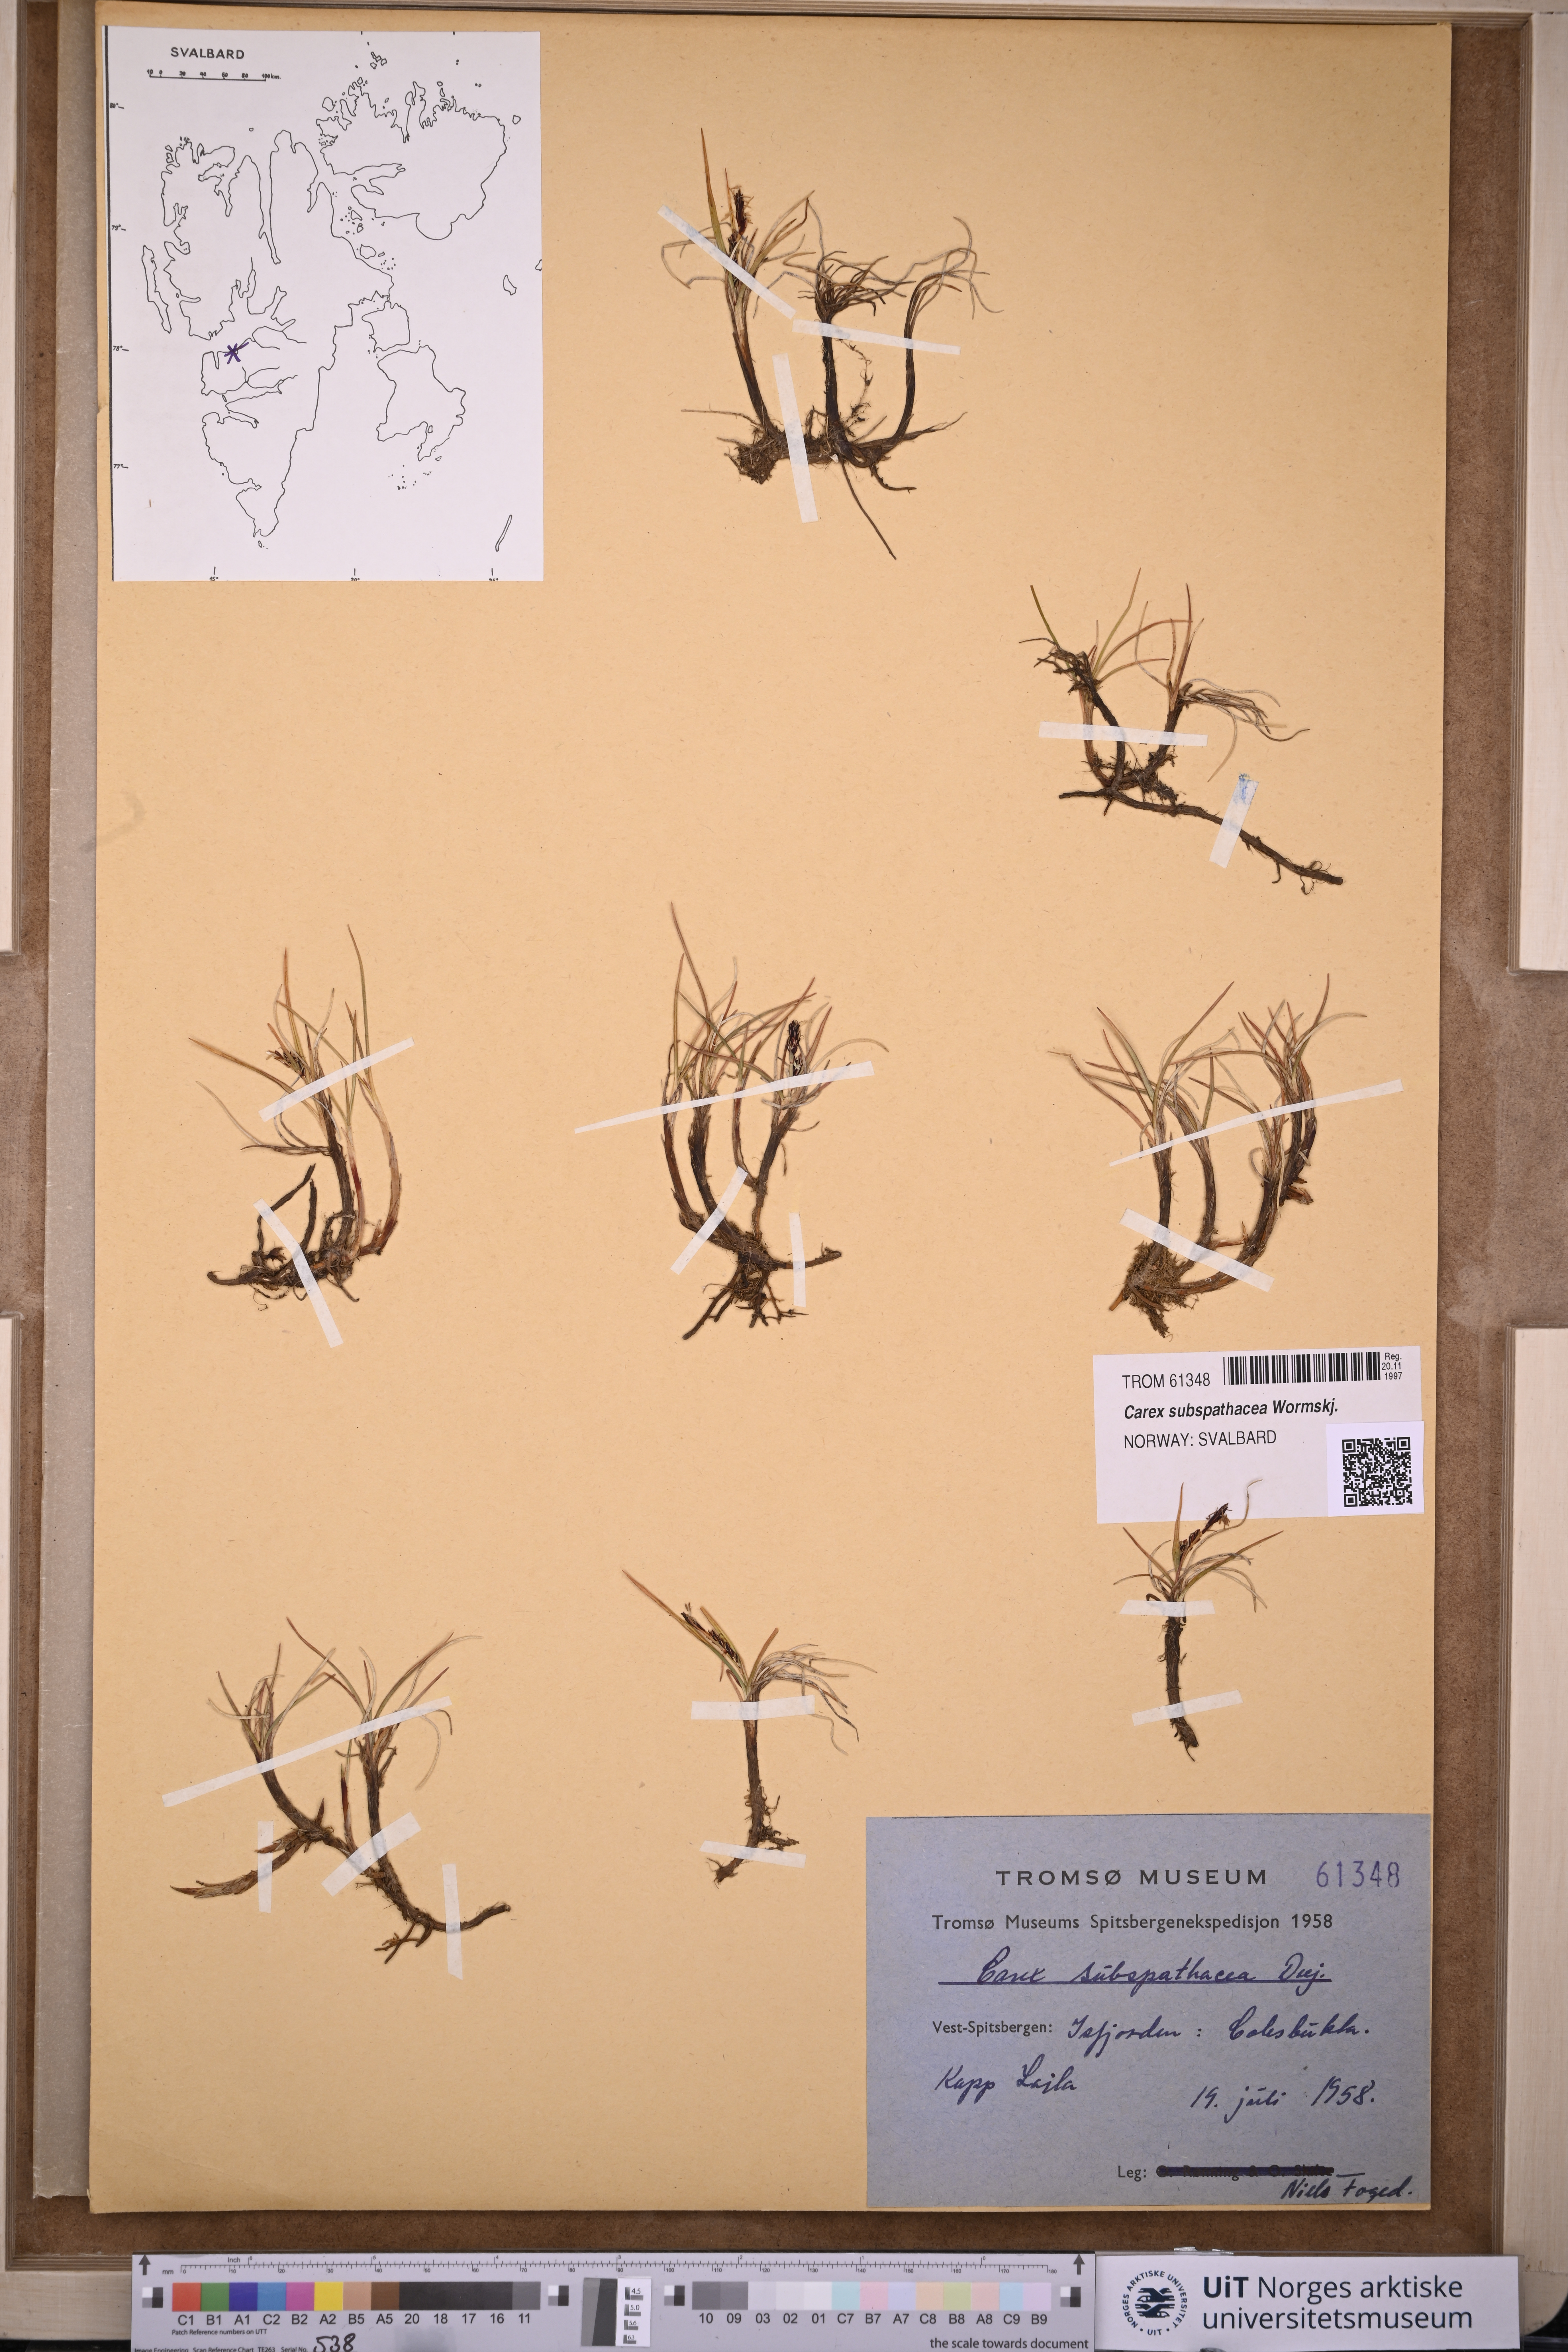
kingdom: Plantae
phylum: Tracheophyta
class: Liliopsida
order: Poales
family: Cyperaceae
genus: Carex
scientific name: Carex subspathacea
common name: Hoppner's sedge
